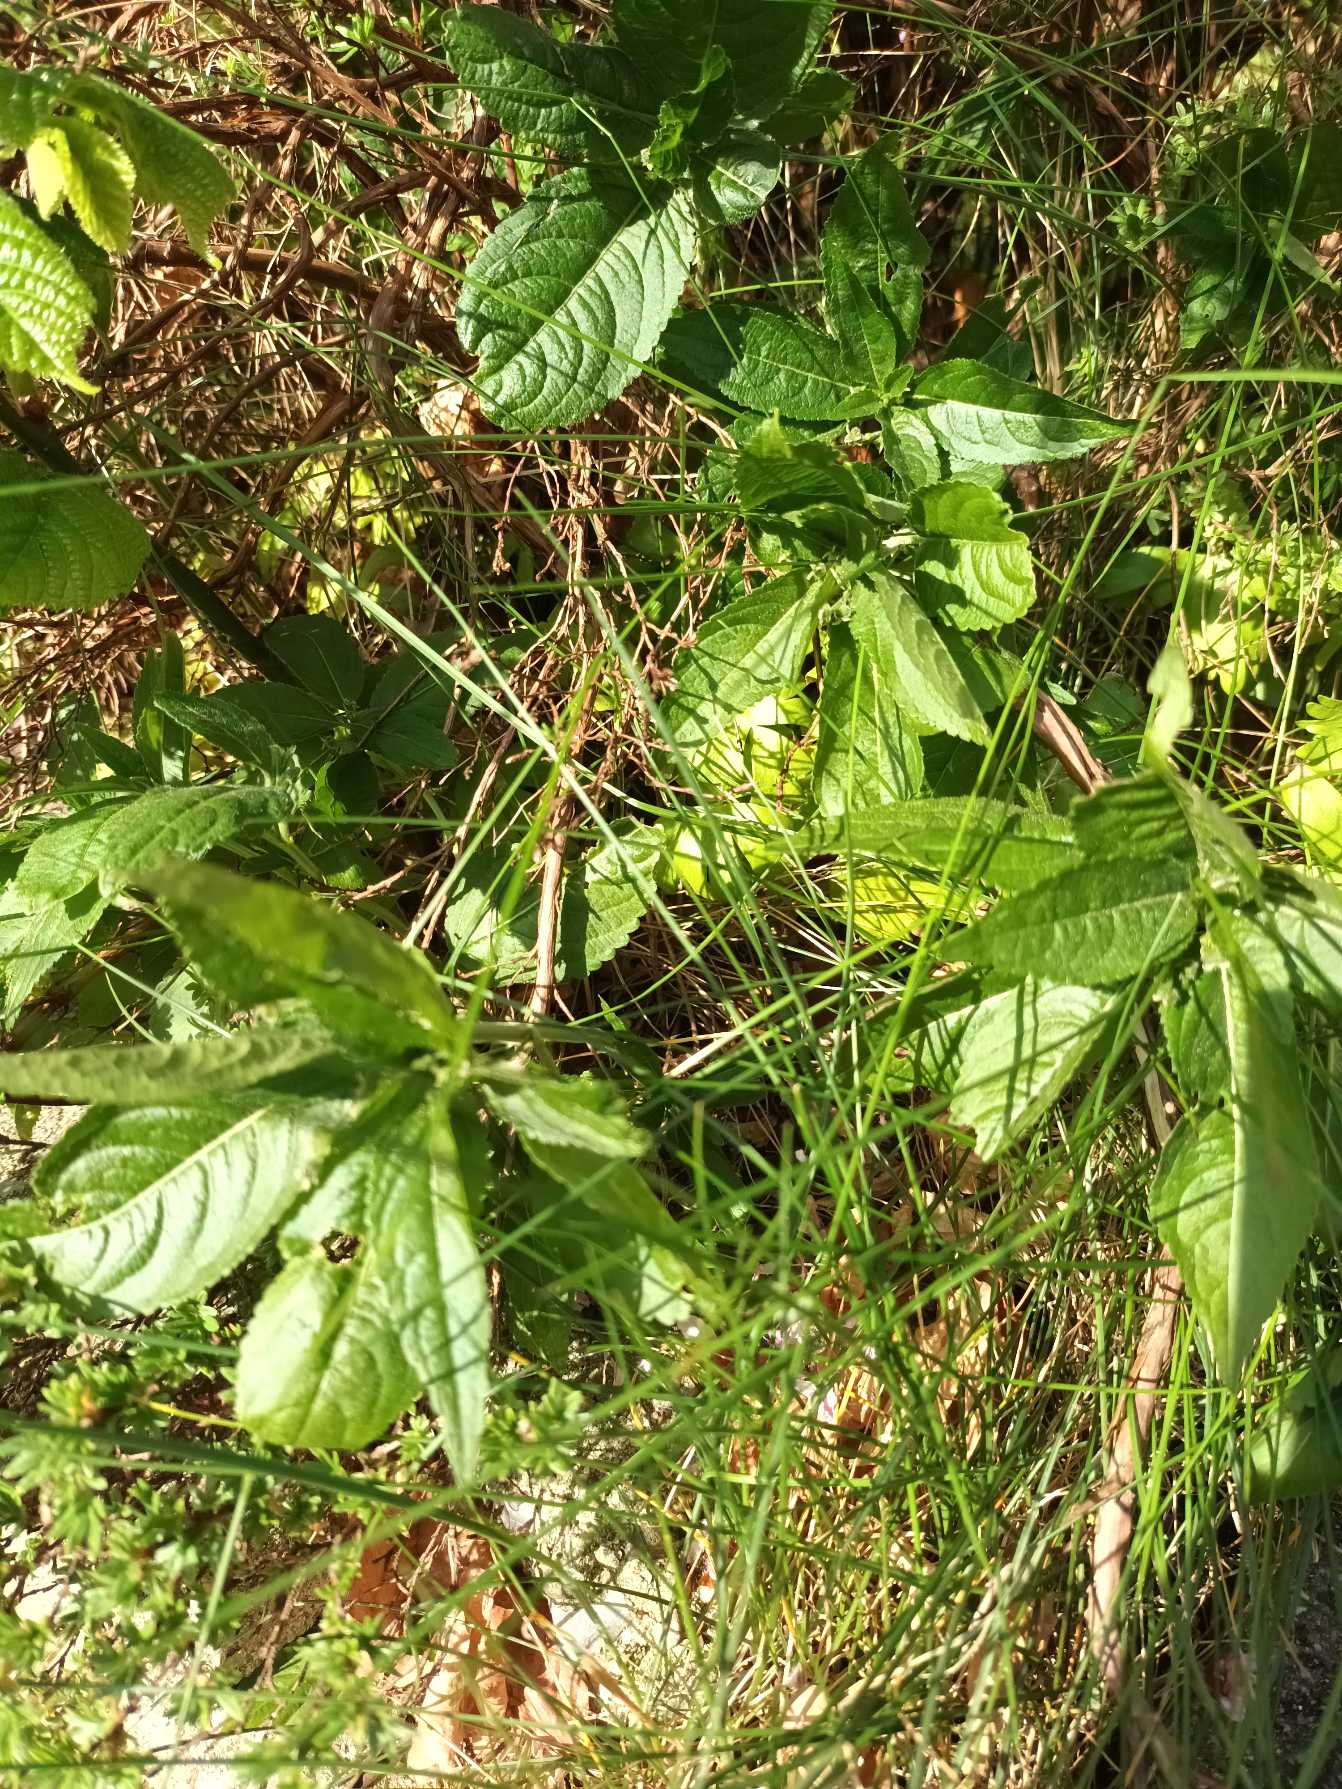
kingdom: Plantae
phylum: Tracheophyta
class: Magnoliopsida
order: Malpighiales
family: Euphorbiaceae
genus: Mercurialis
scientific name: Mercurialis perennis
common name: Almindelig bingelurt
